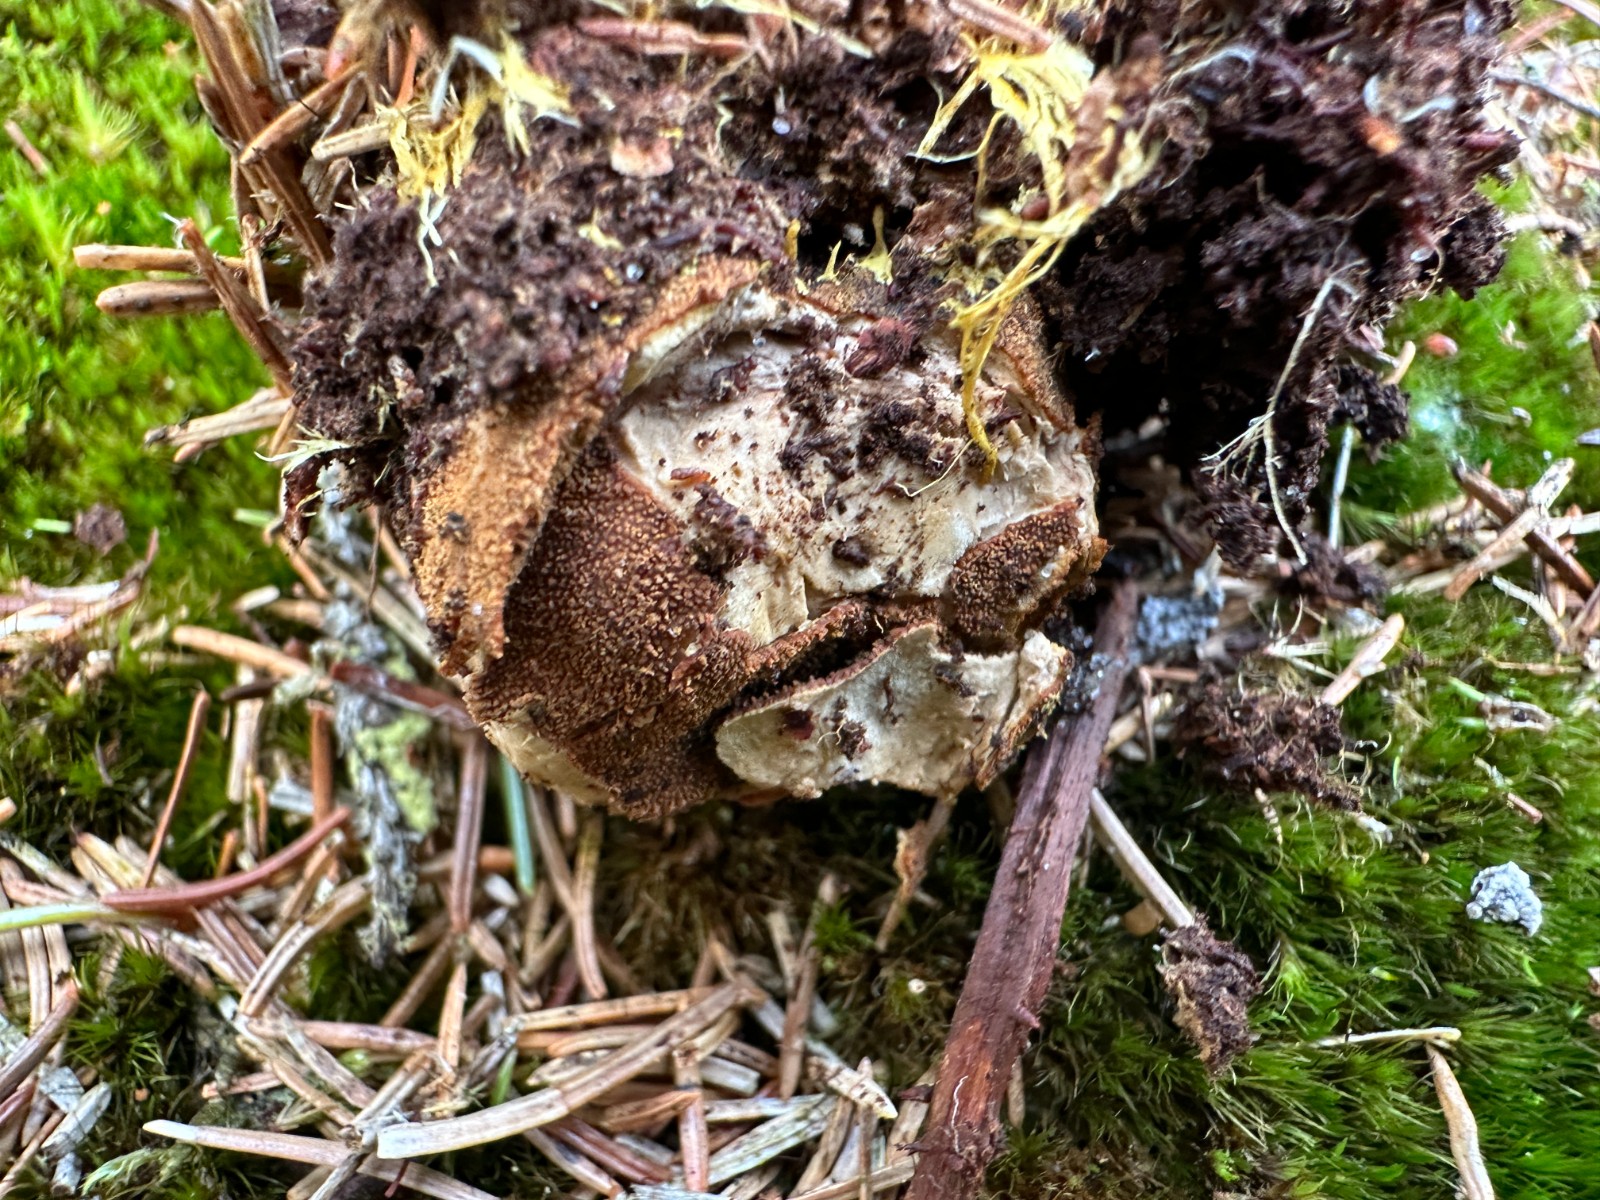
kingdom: Fungi
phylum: Ascomycota
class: Eurotiomycetes
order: Eurotiales
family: Elaphomycetaceae
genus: Elaphomyces
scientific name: Elaphomyces granulatus
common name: grynet hjortetrøffel
